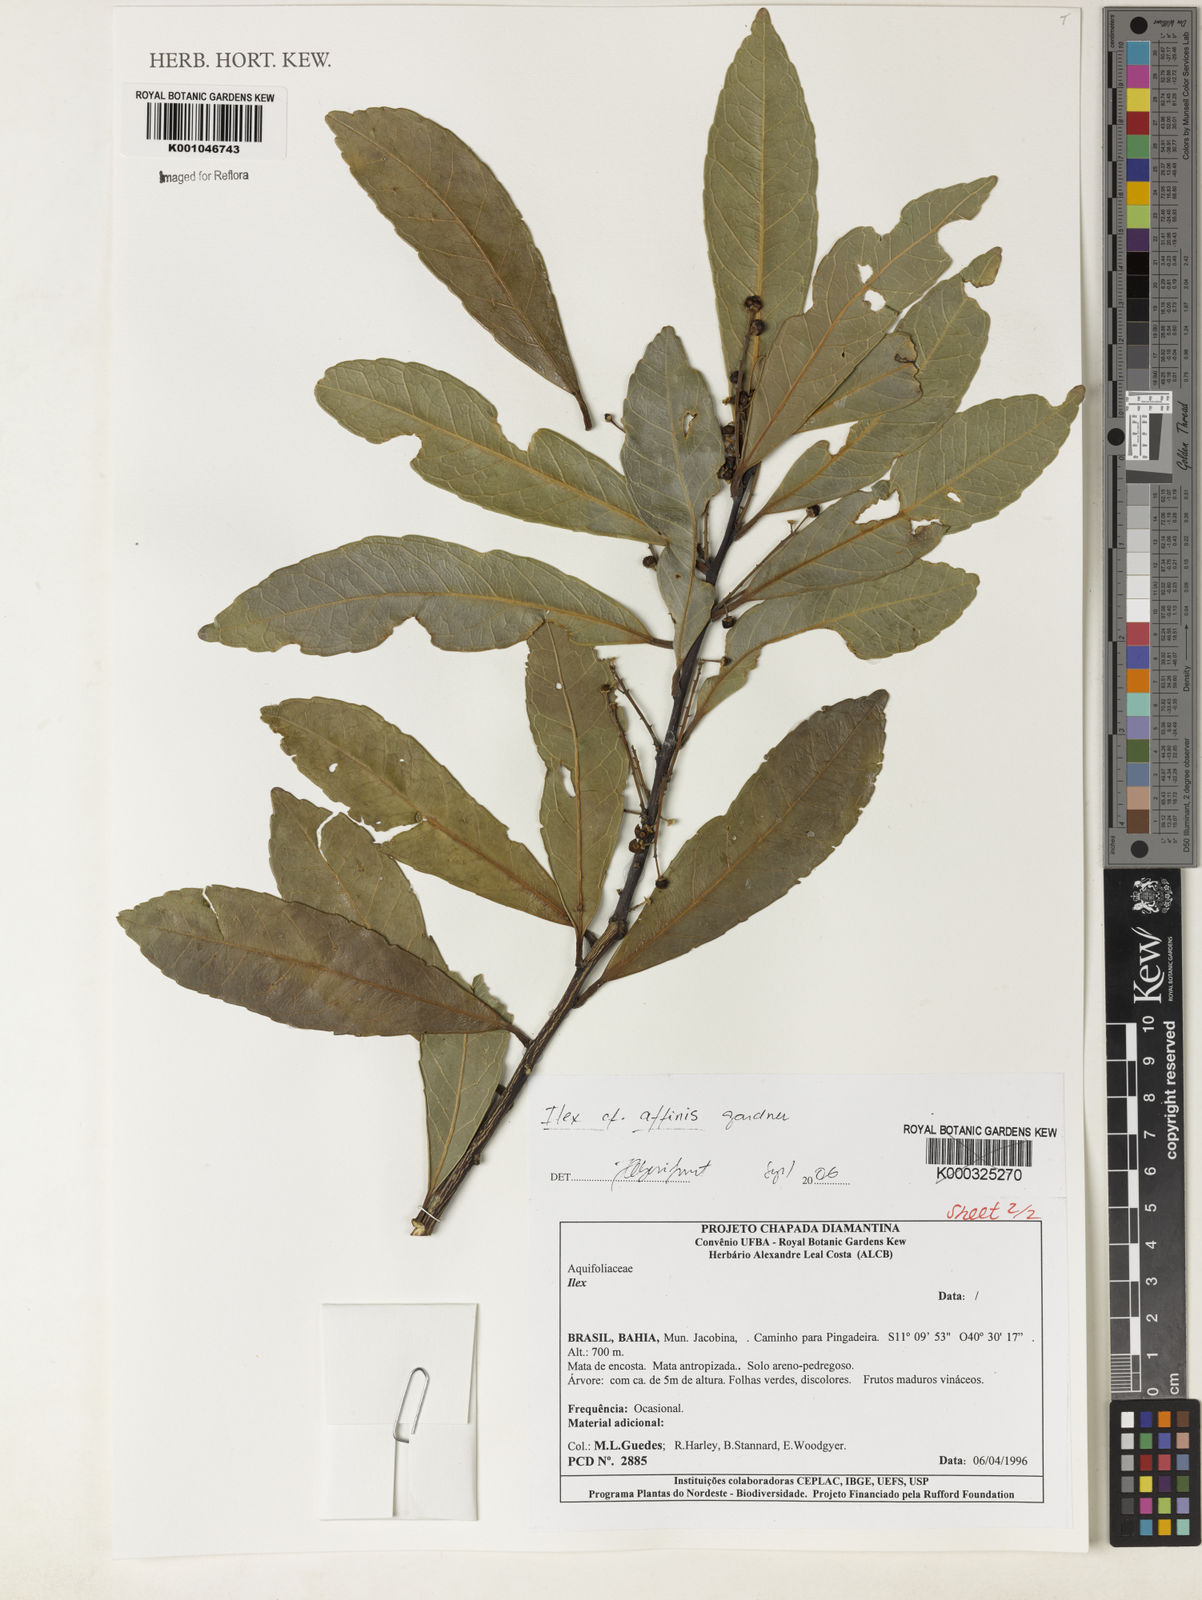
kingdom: Plantae
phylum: Tracheophyta
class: Magnoliopsida
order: Aquifoliales
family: Aquifoliaceae
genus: Ilex
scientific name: Ilex affinis
